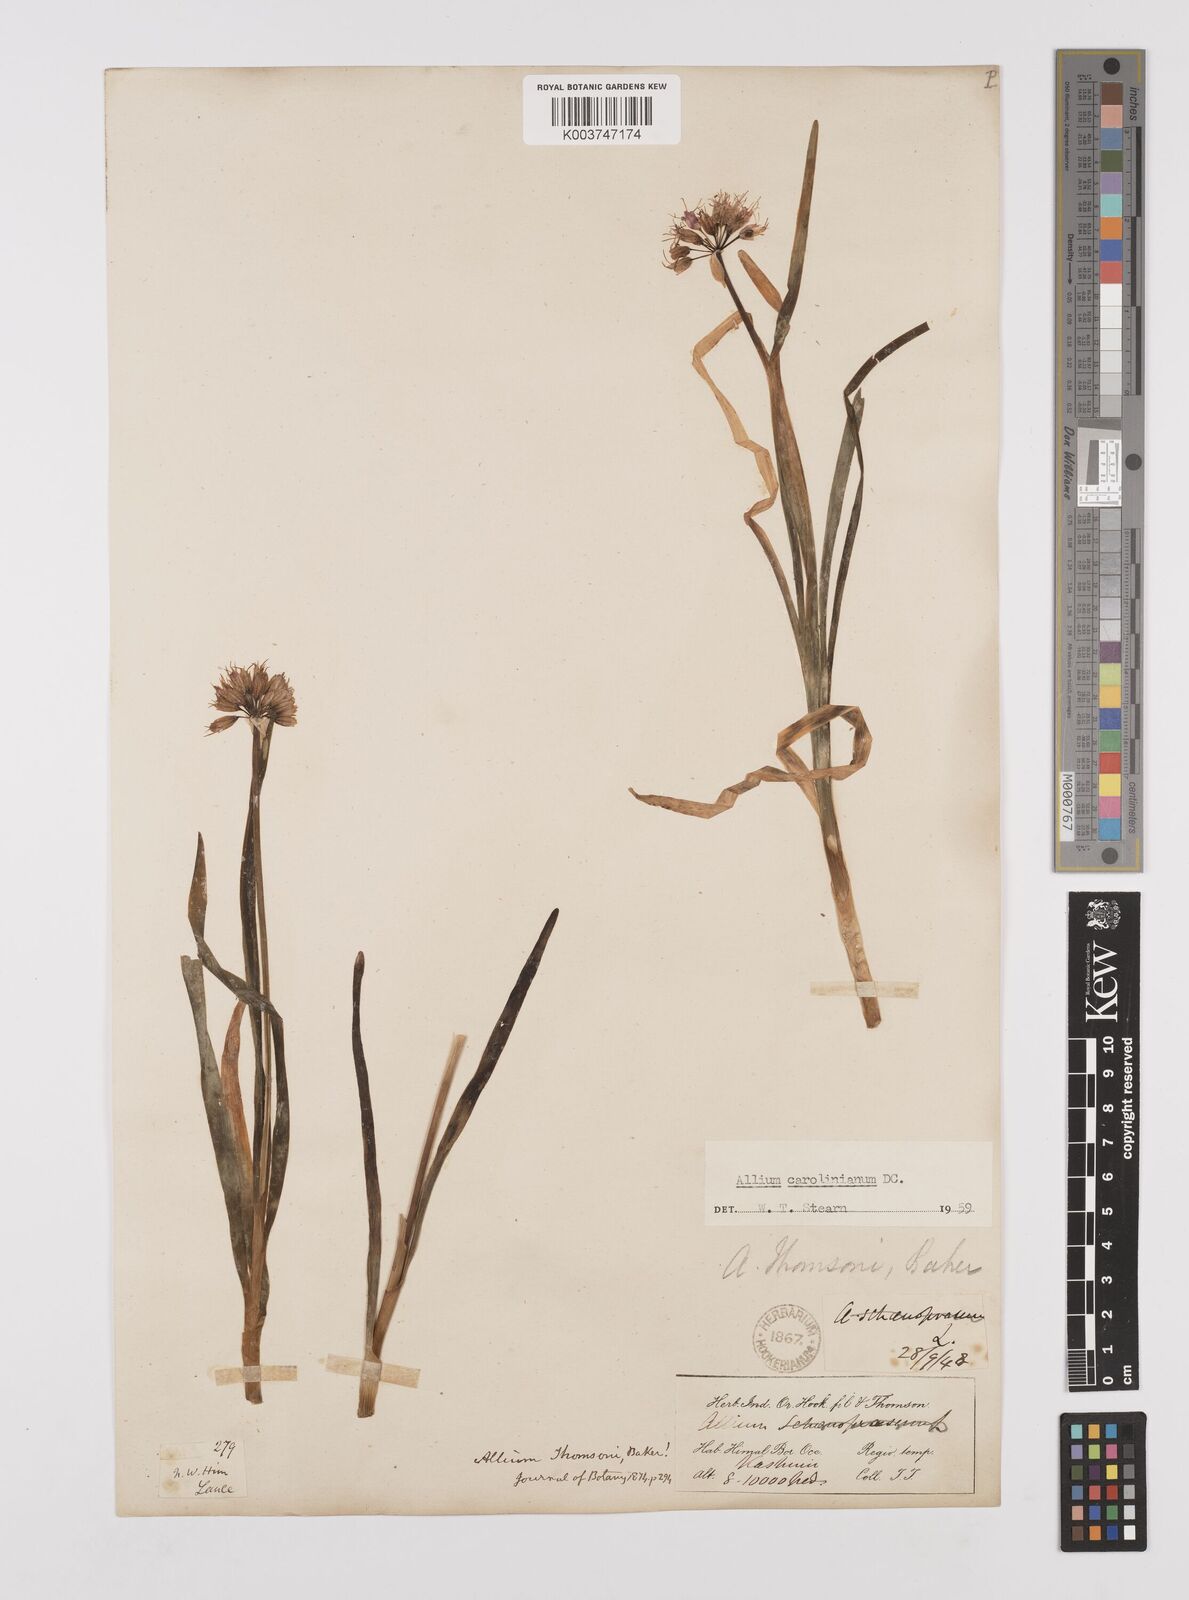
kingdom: Plantae
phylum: Tracheophyta
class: Liliopsida
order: Asparagales
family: Amaryllidaceae
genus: Allium
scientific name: Allium carolinianum
